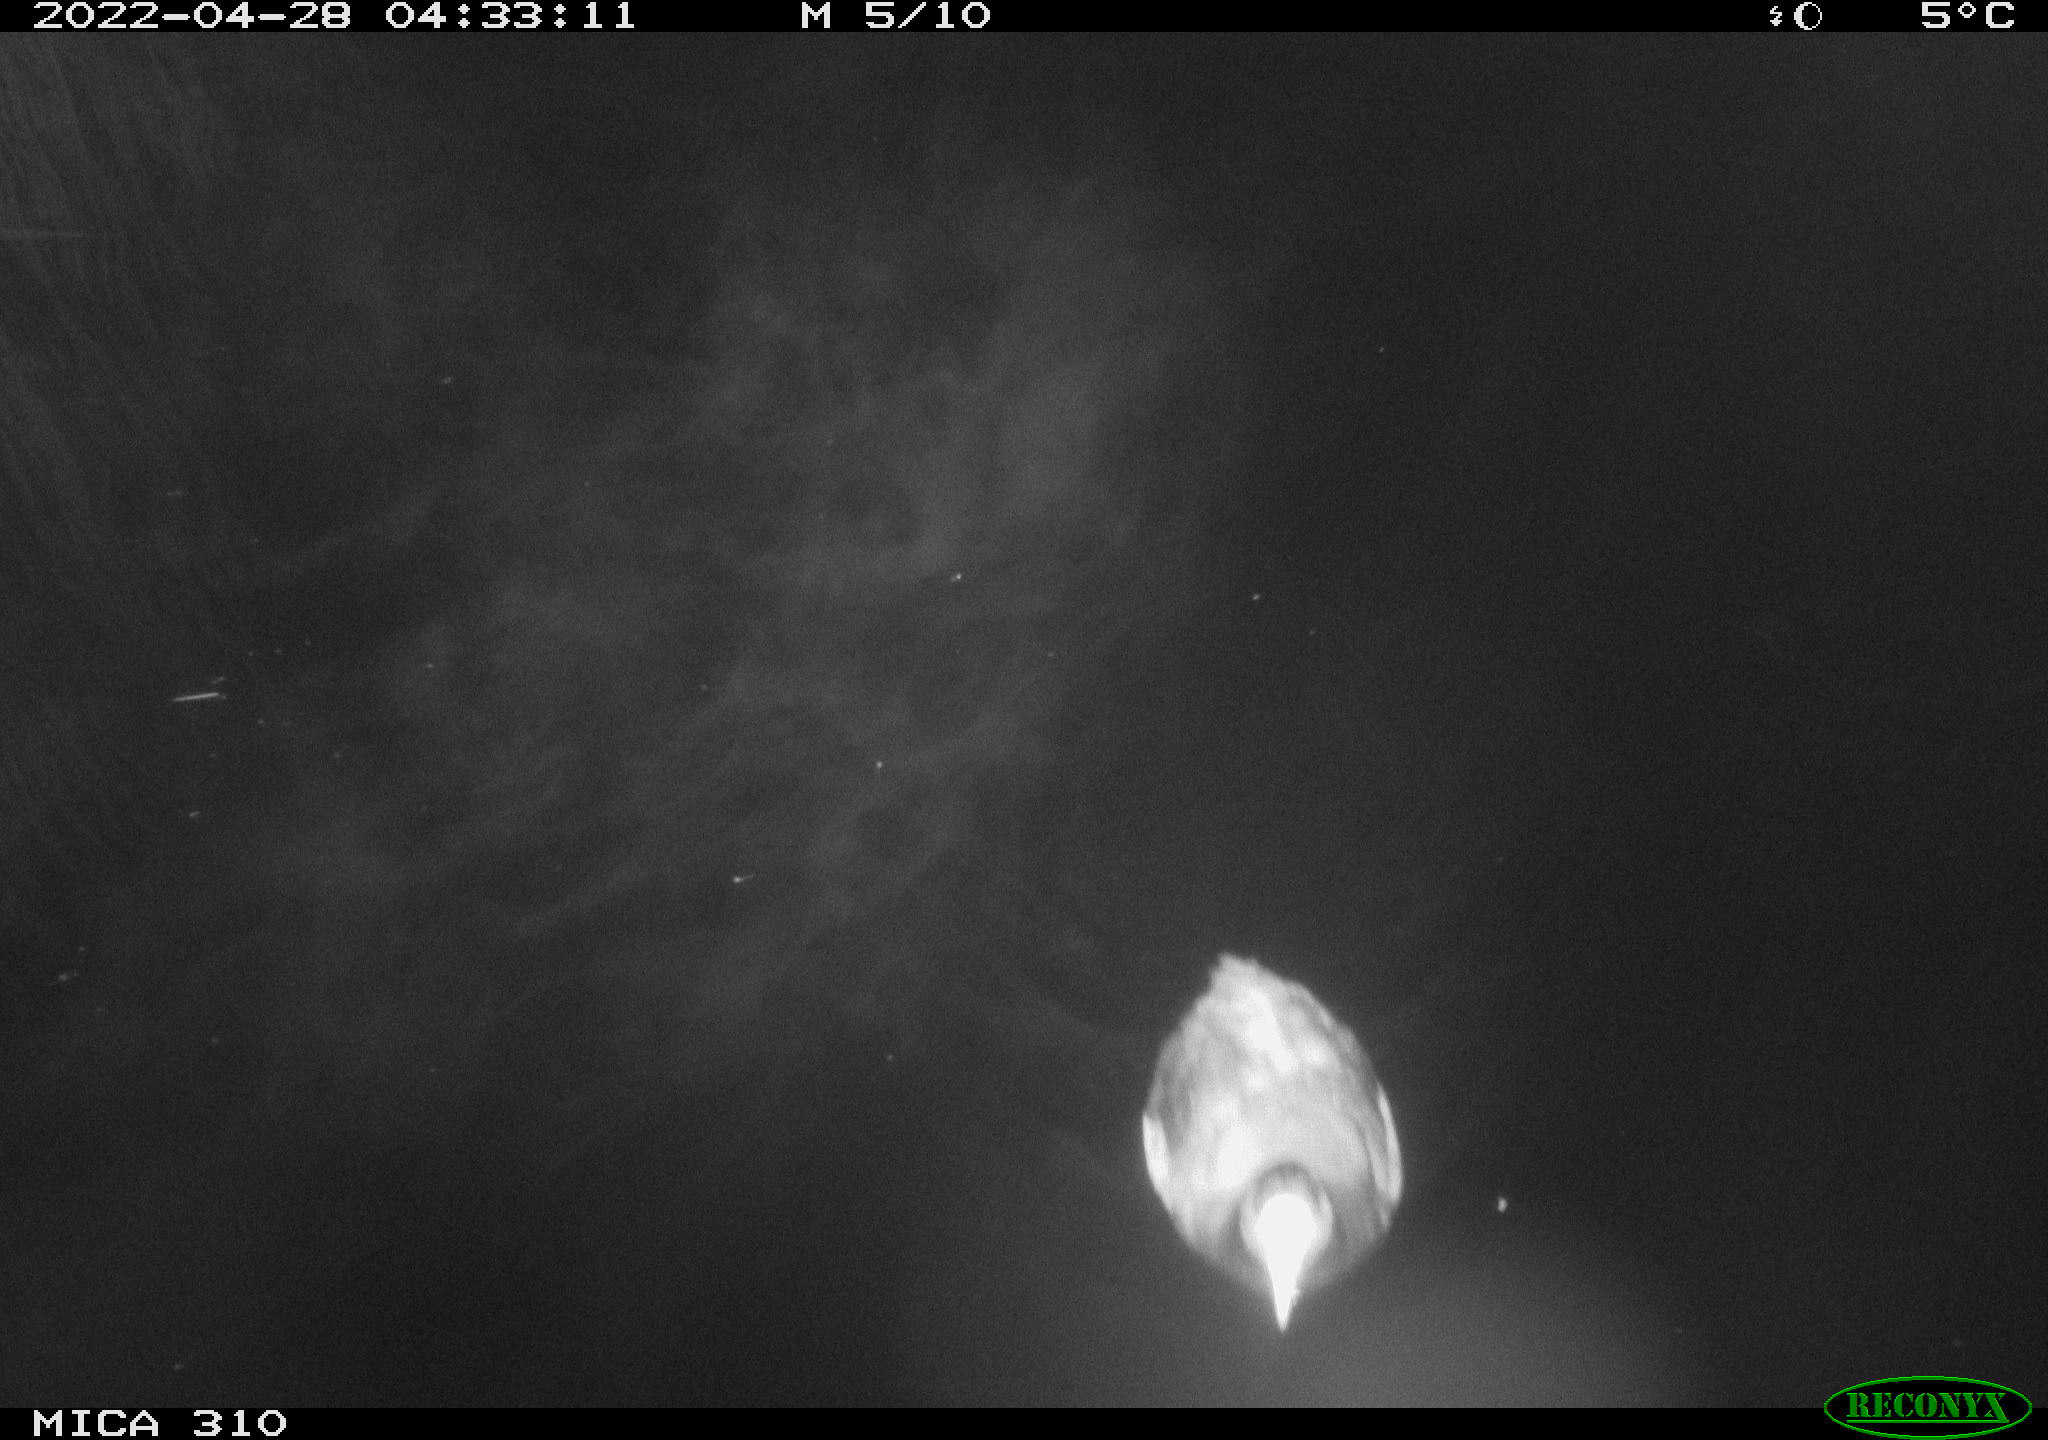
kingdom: Animalia
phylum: Chordata
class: Aves
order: Gruiformes
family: Rallidae
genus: Fulica
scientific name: Fulica atra
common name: Eurasian coot
